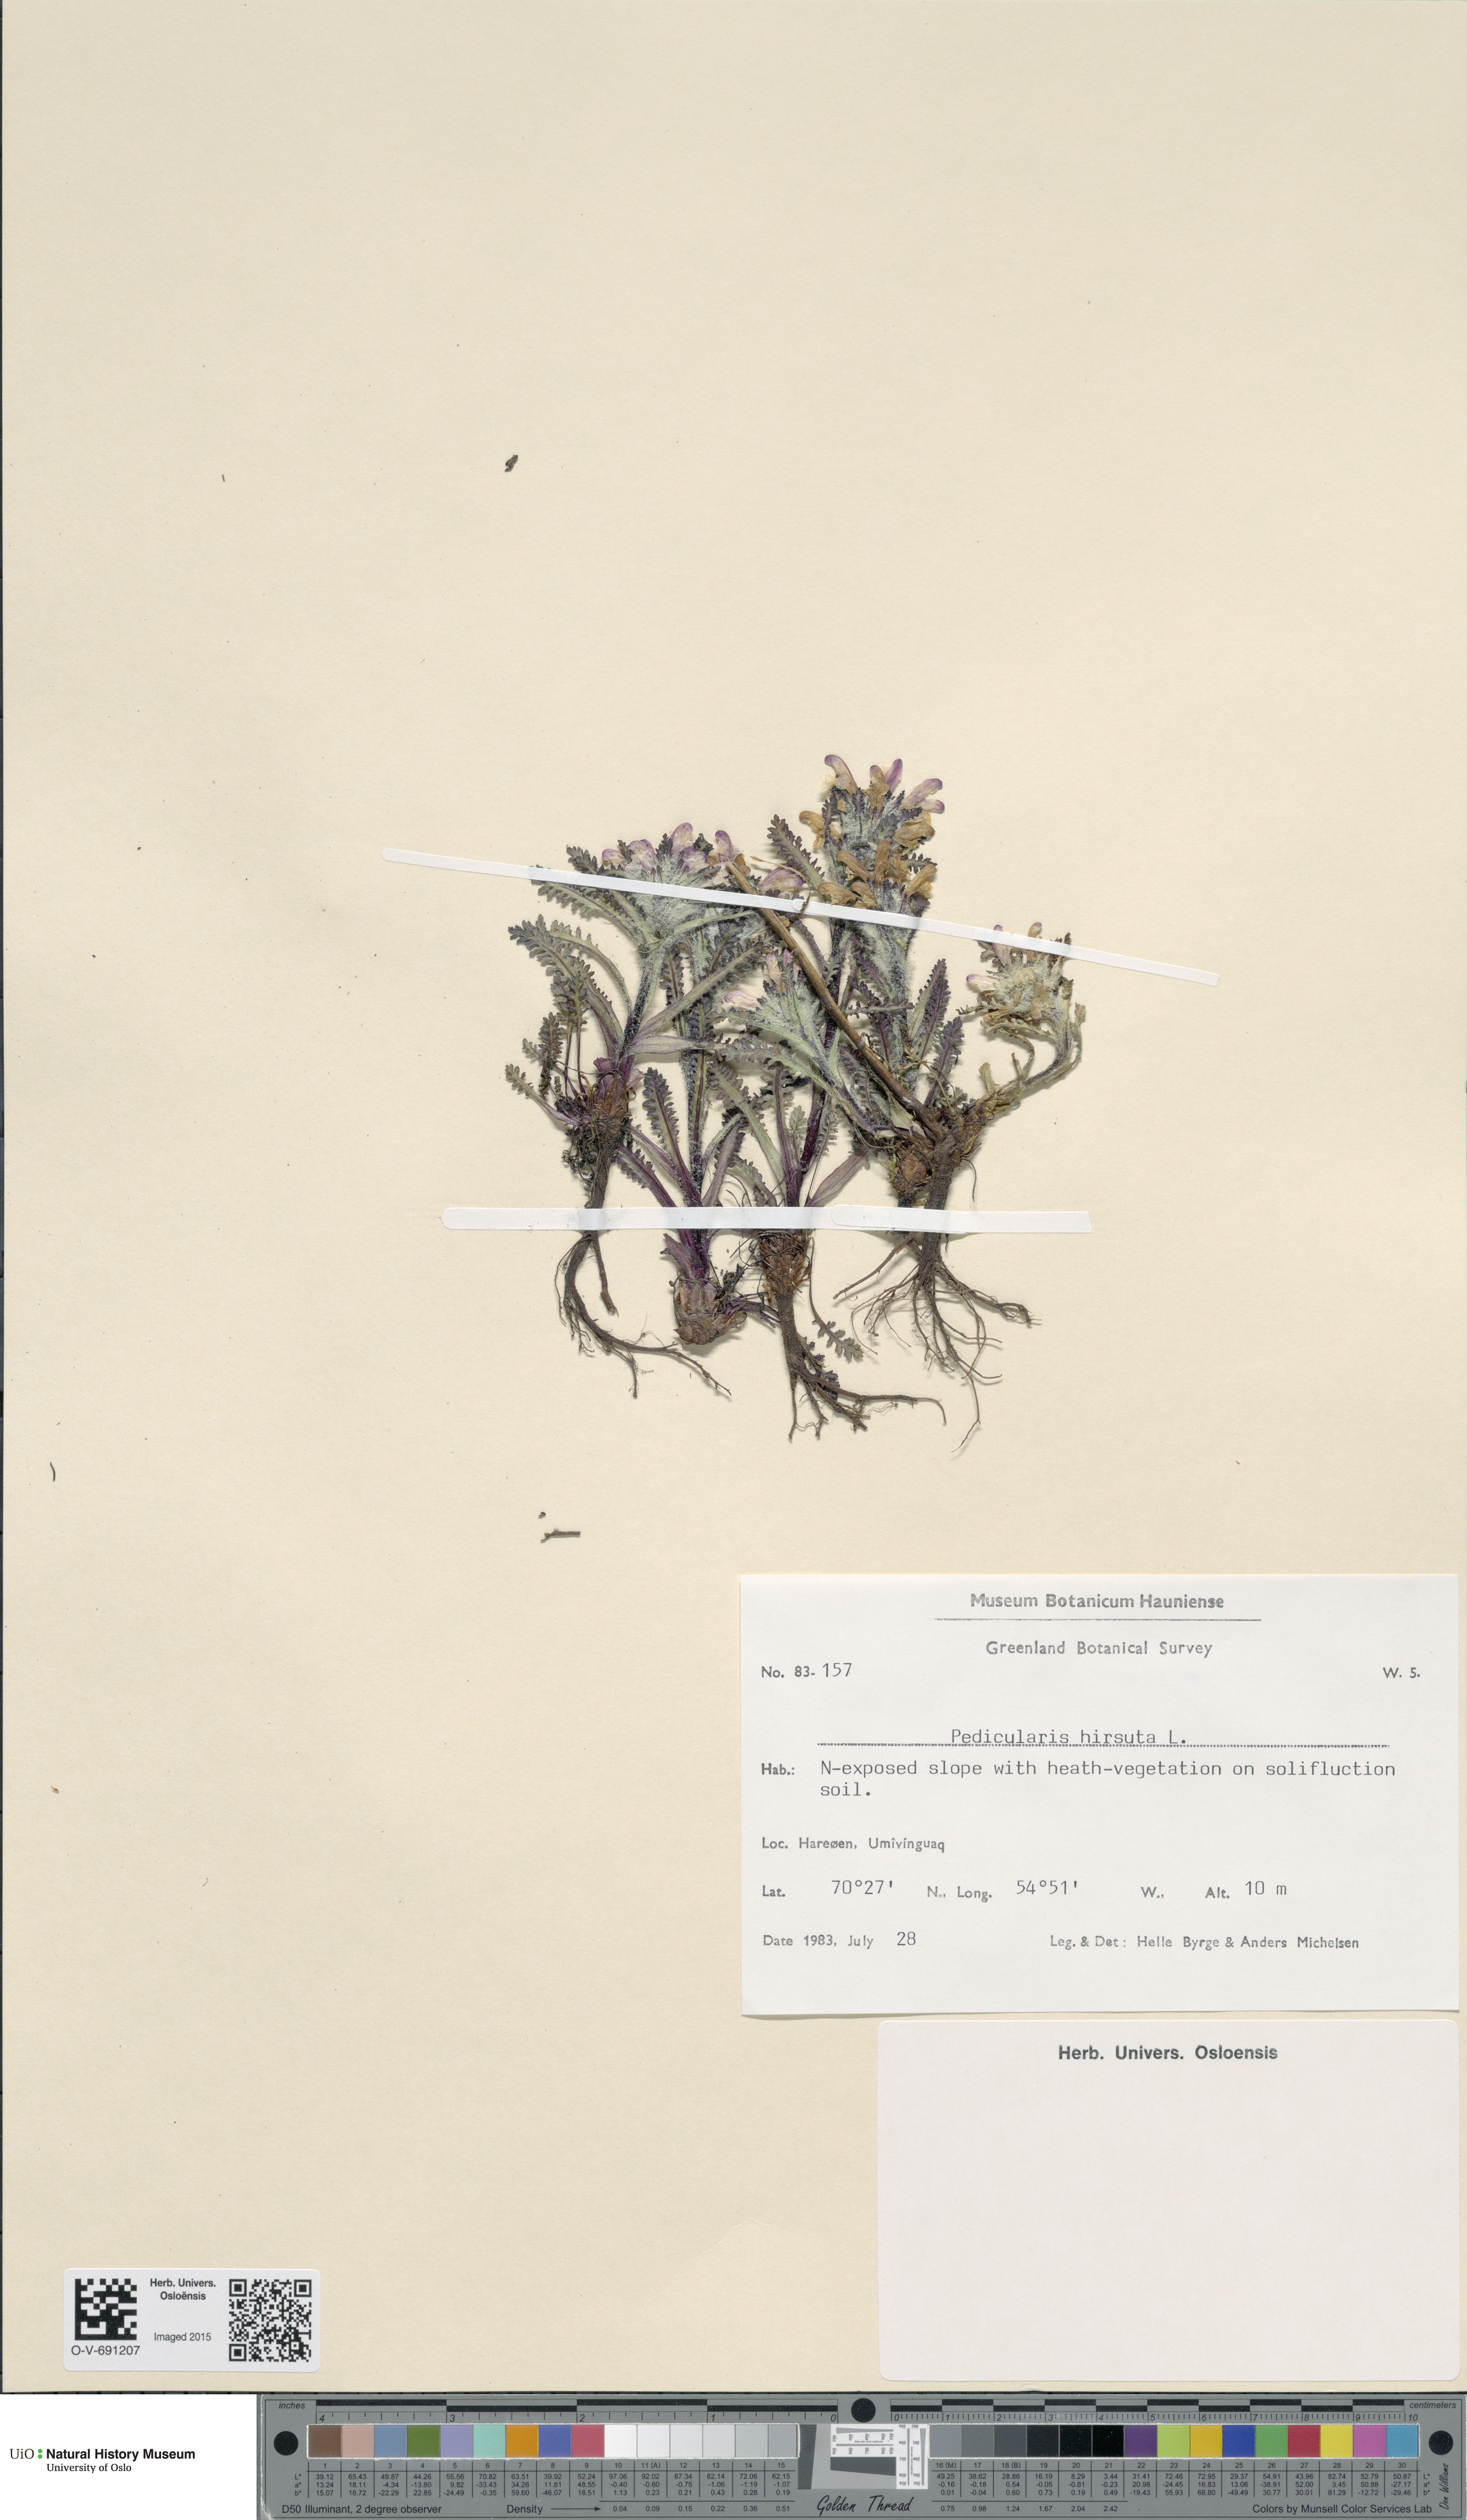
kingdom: Plantae
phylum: Tracheophyta
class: Magnoliopsida
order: Lamiales
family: Orobanchaceae
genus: Pedicularis
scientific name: Pedicularis hirsuta
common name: Hairy lousewort
